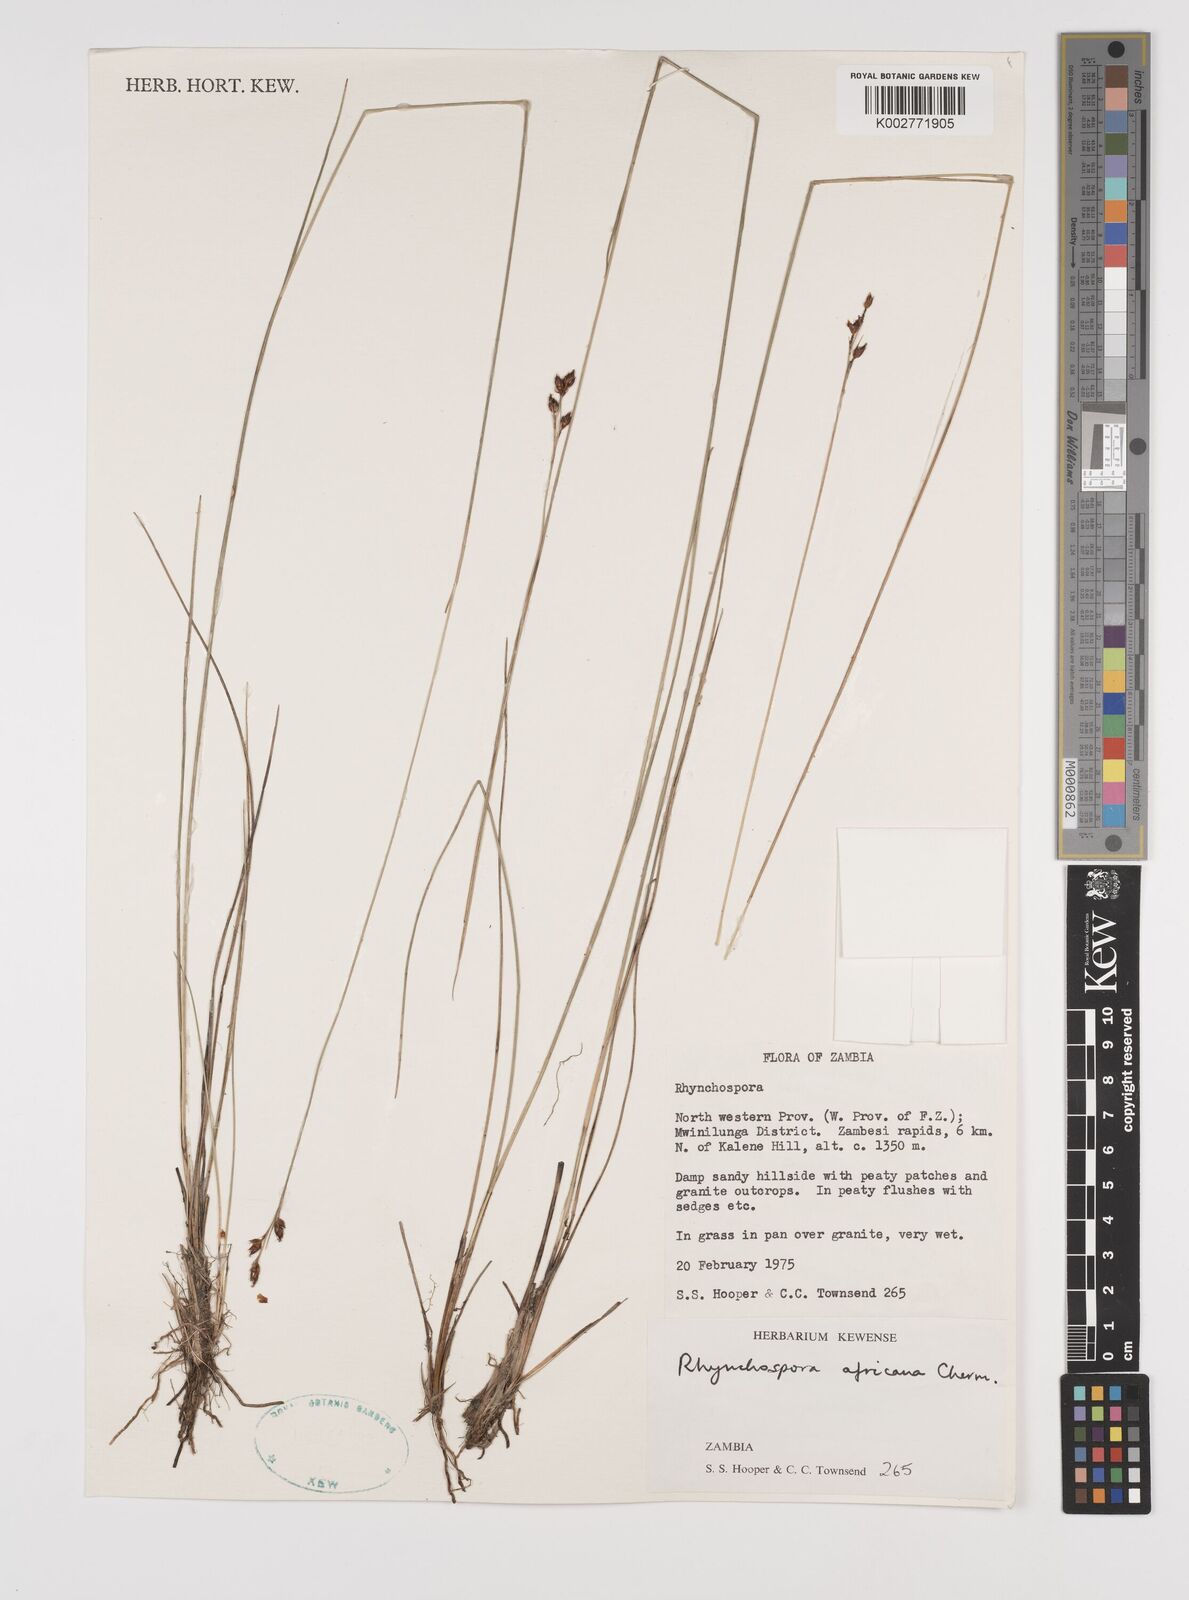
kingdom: Plantae
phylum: Tracheophyta
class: Liliopsida
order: Poales
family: Cyperaceae
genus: Rhynchospora
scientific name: Rhynchospora angolensis
